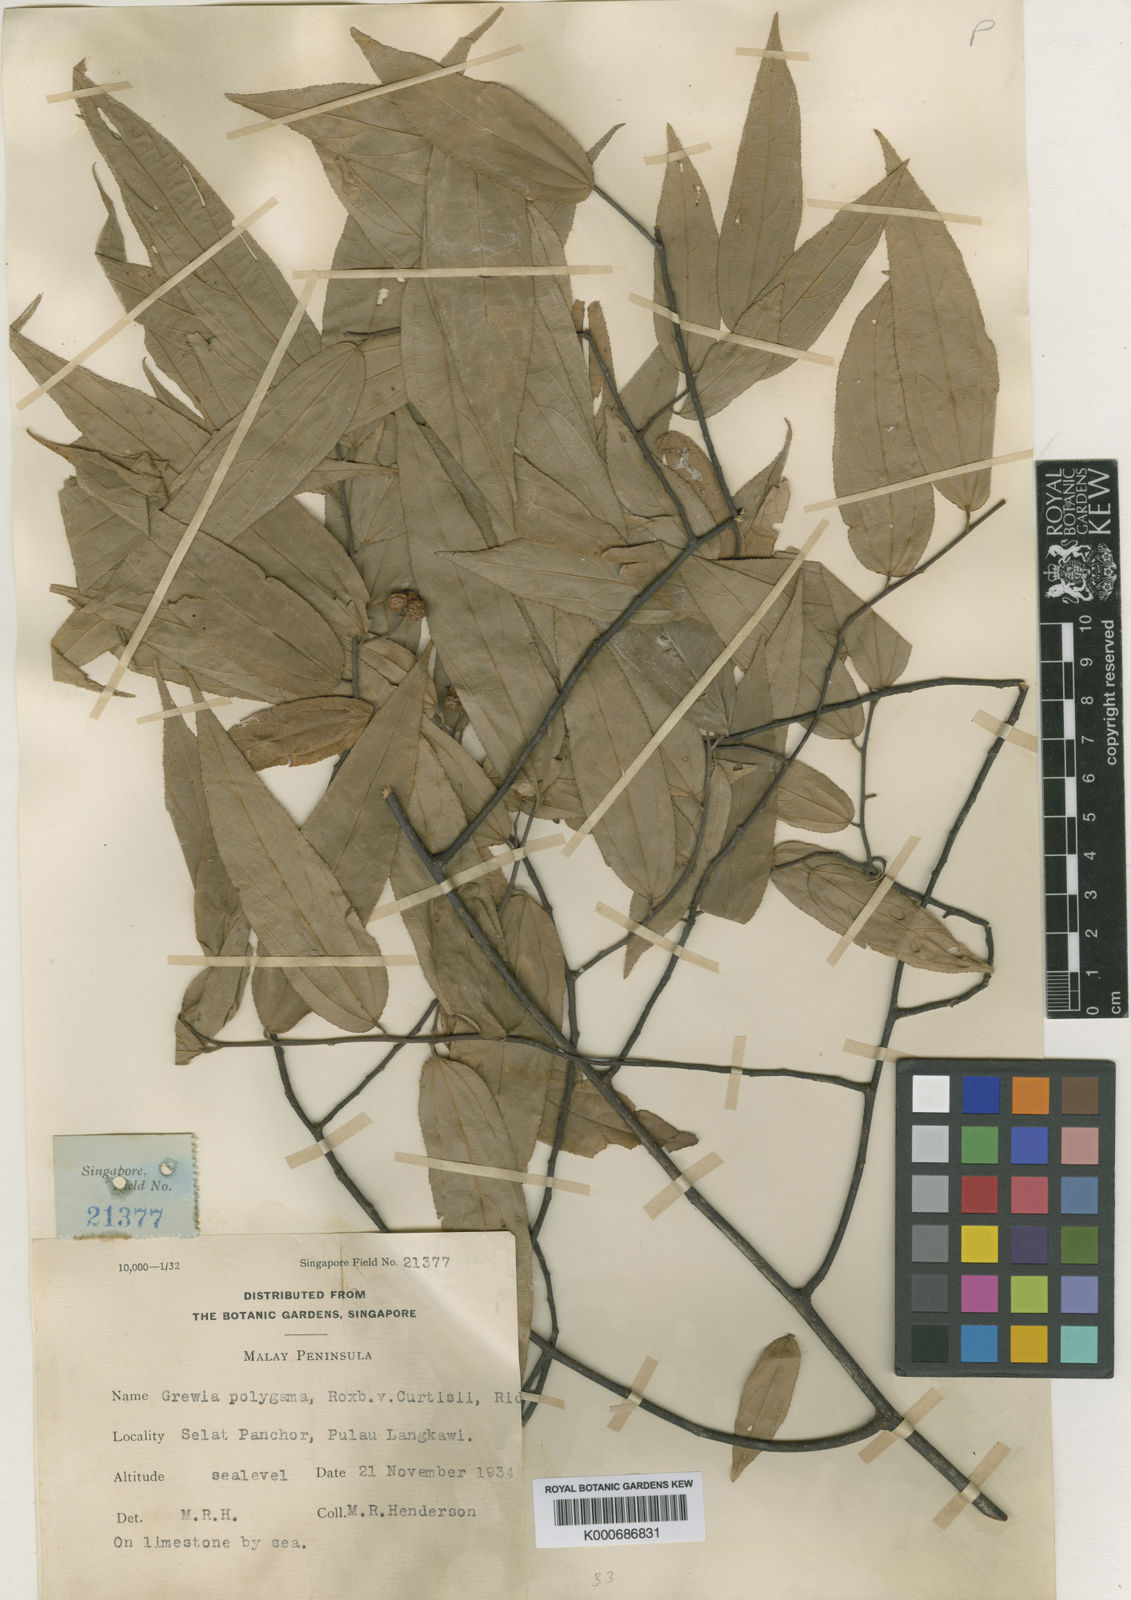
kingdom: Plantae
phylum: Tracheophyta
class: Magnoliopsida
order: Malvales
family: Malvaceae
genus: Grewia
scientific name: Grewia excelsa
